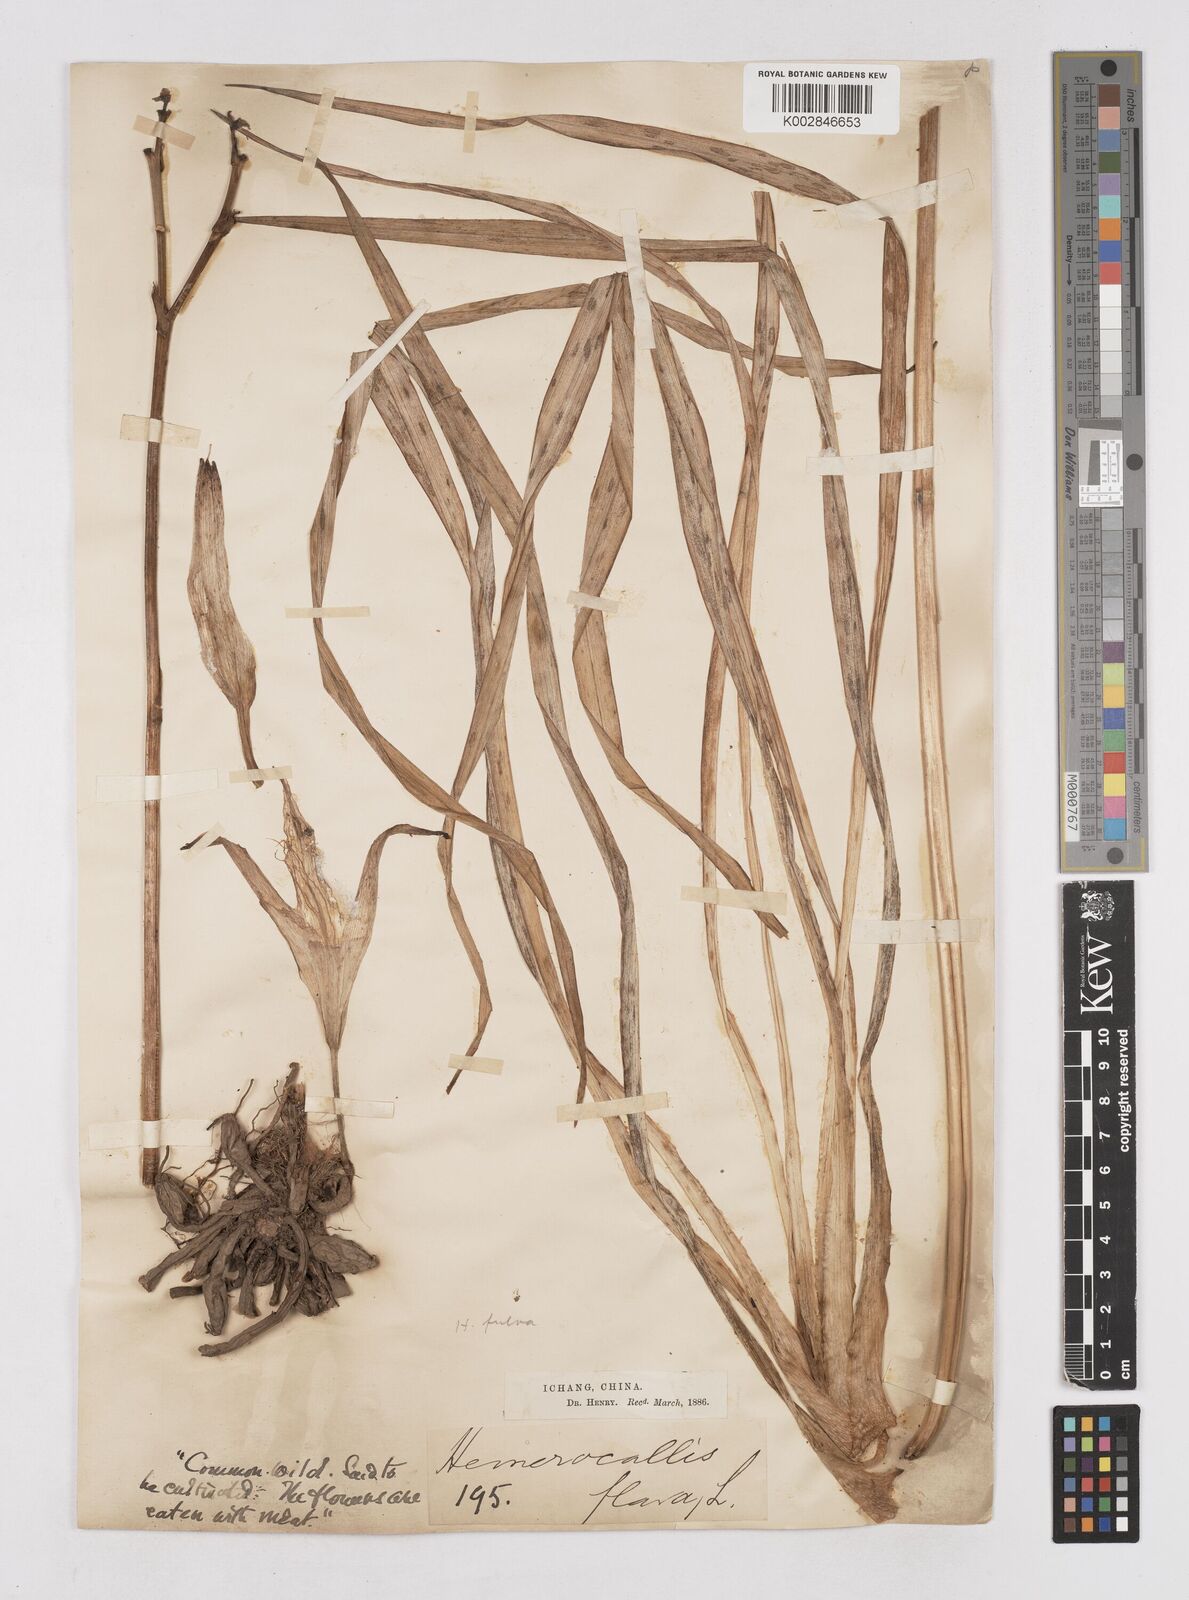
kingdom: Plantae
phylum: Tracheophyta
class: Liliopsida
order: Asparagales
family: Asphodelaceae
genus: Hemerocallis
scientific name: Hemerocallis fulva
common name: Orange day-lily
